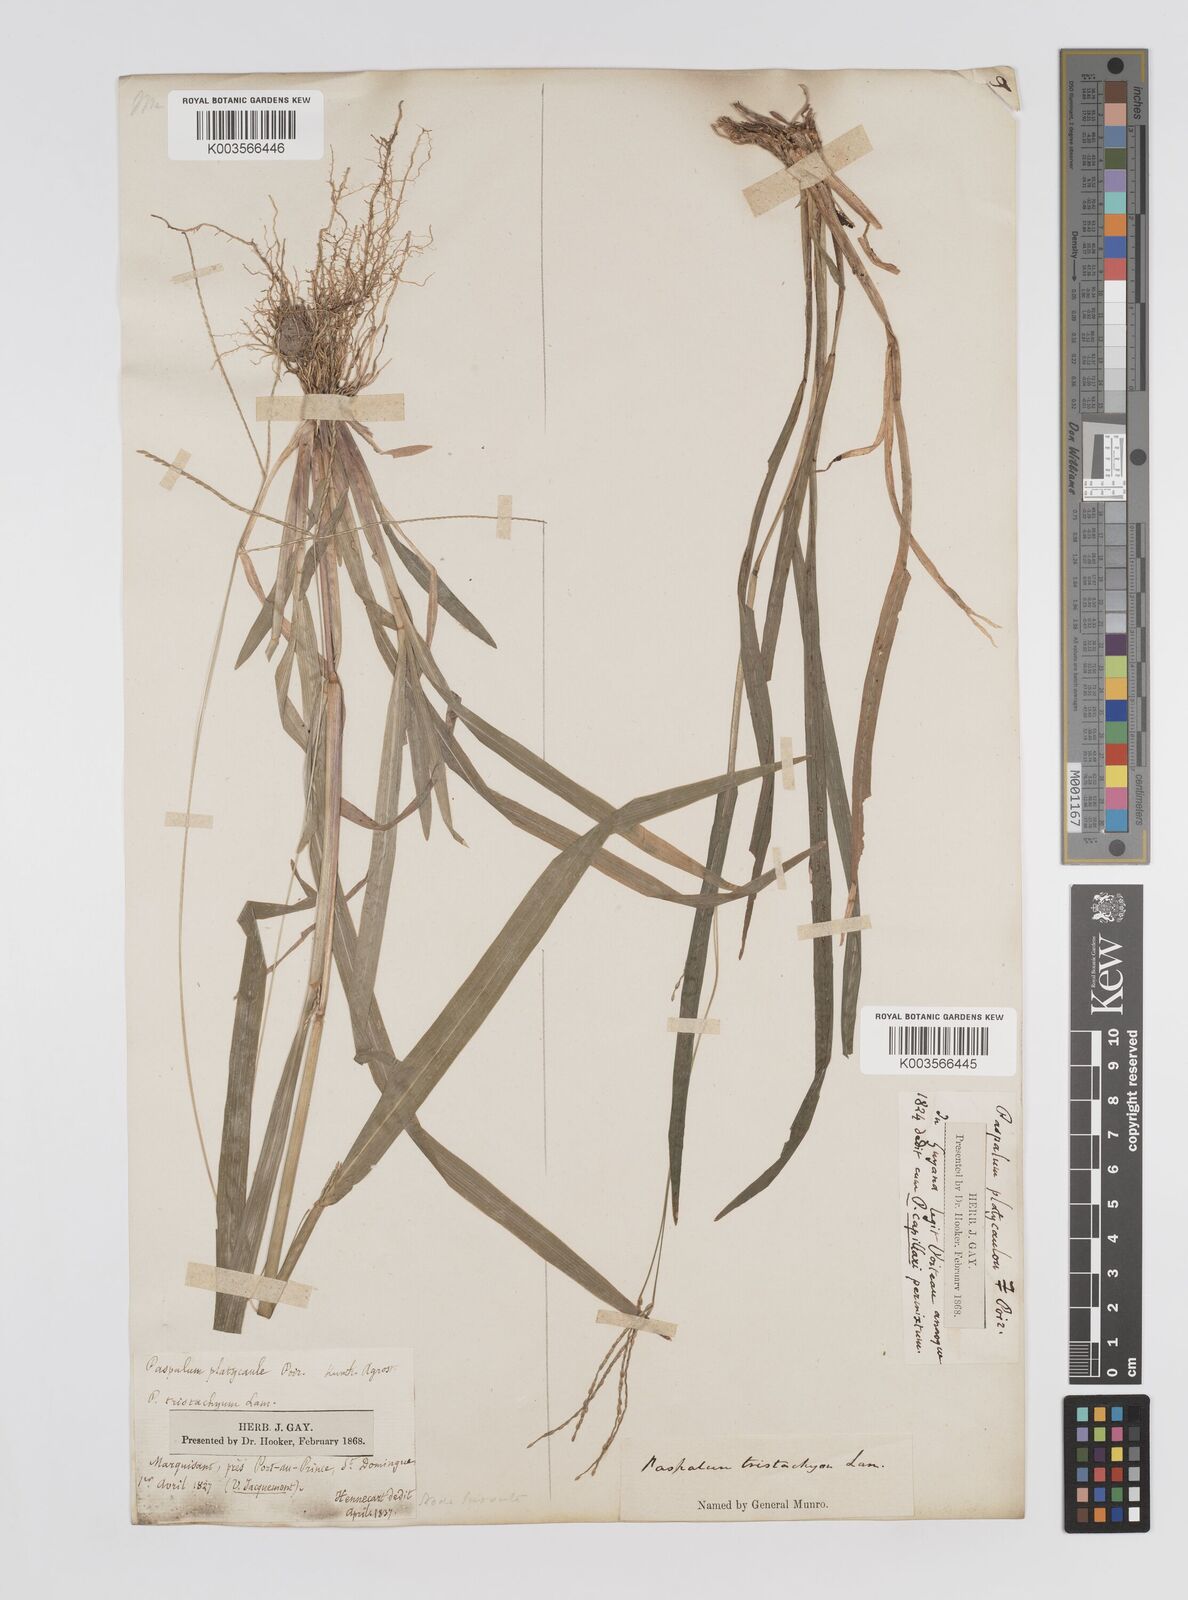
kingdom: Plantae
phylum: Tracheophyta
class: Liliopsida
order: Poales
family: Poaceae
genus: Axonopus
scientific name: Axonopus compressus
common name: American carpet grass
